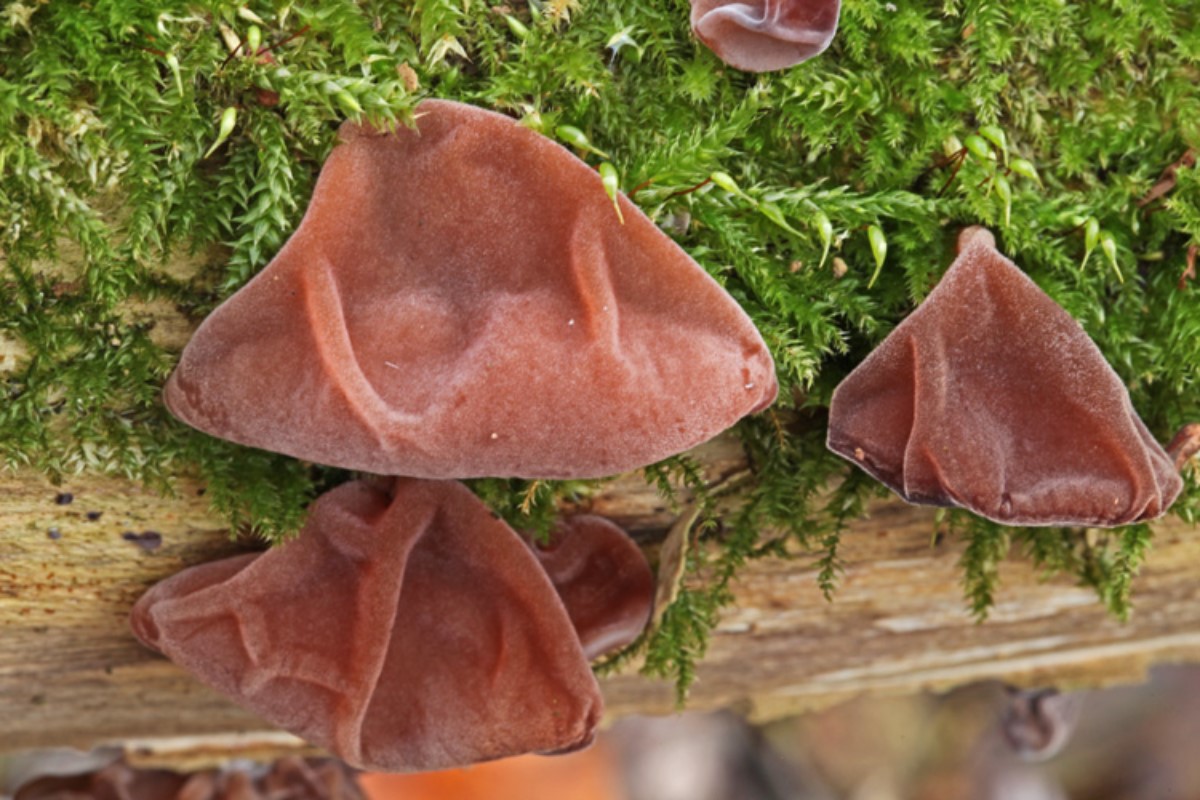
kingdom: Fungi
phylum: Basidiomycota
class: Agaricomycetes
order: Auriculariales
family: Auriculariaceae
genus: Auricularia
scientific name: Auricularia auricula-judae
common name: almindelig judasøre
